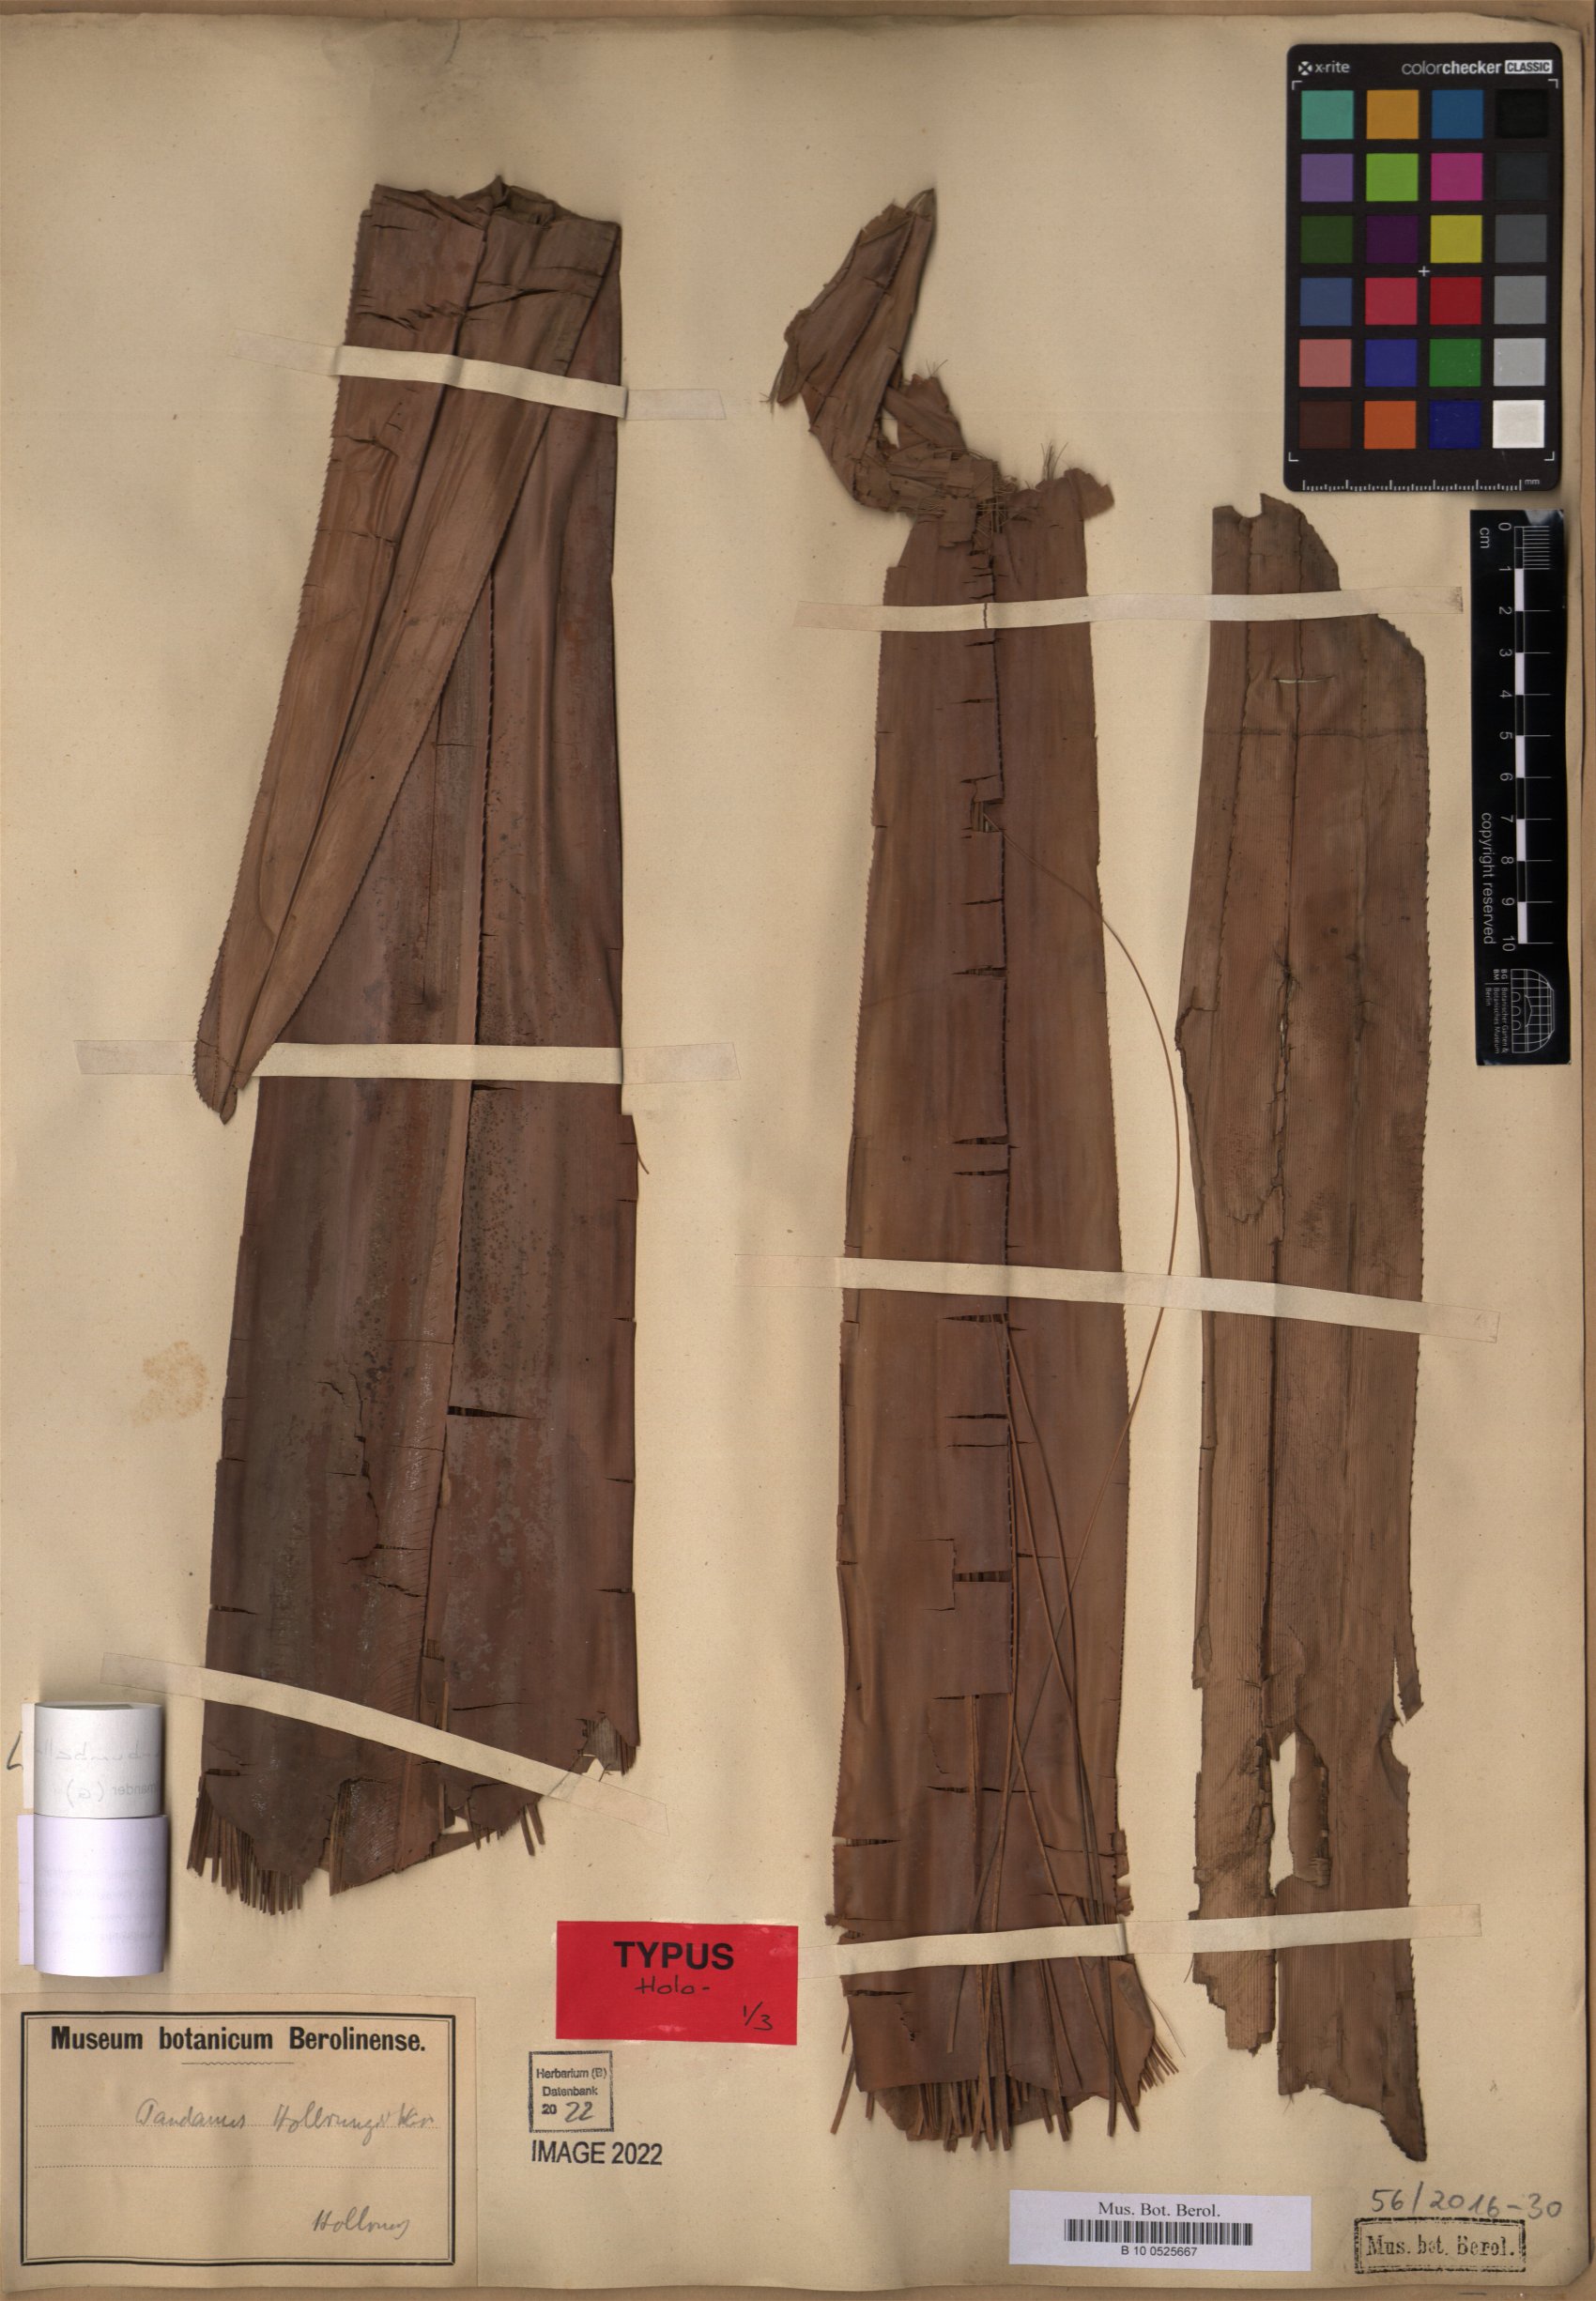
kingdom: Plantae
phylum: Tracheophyta
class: Liliopsida
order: Pandanales
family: Pandanaceae
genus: Pandanus
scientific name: Pandanus conoideus
